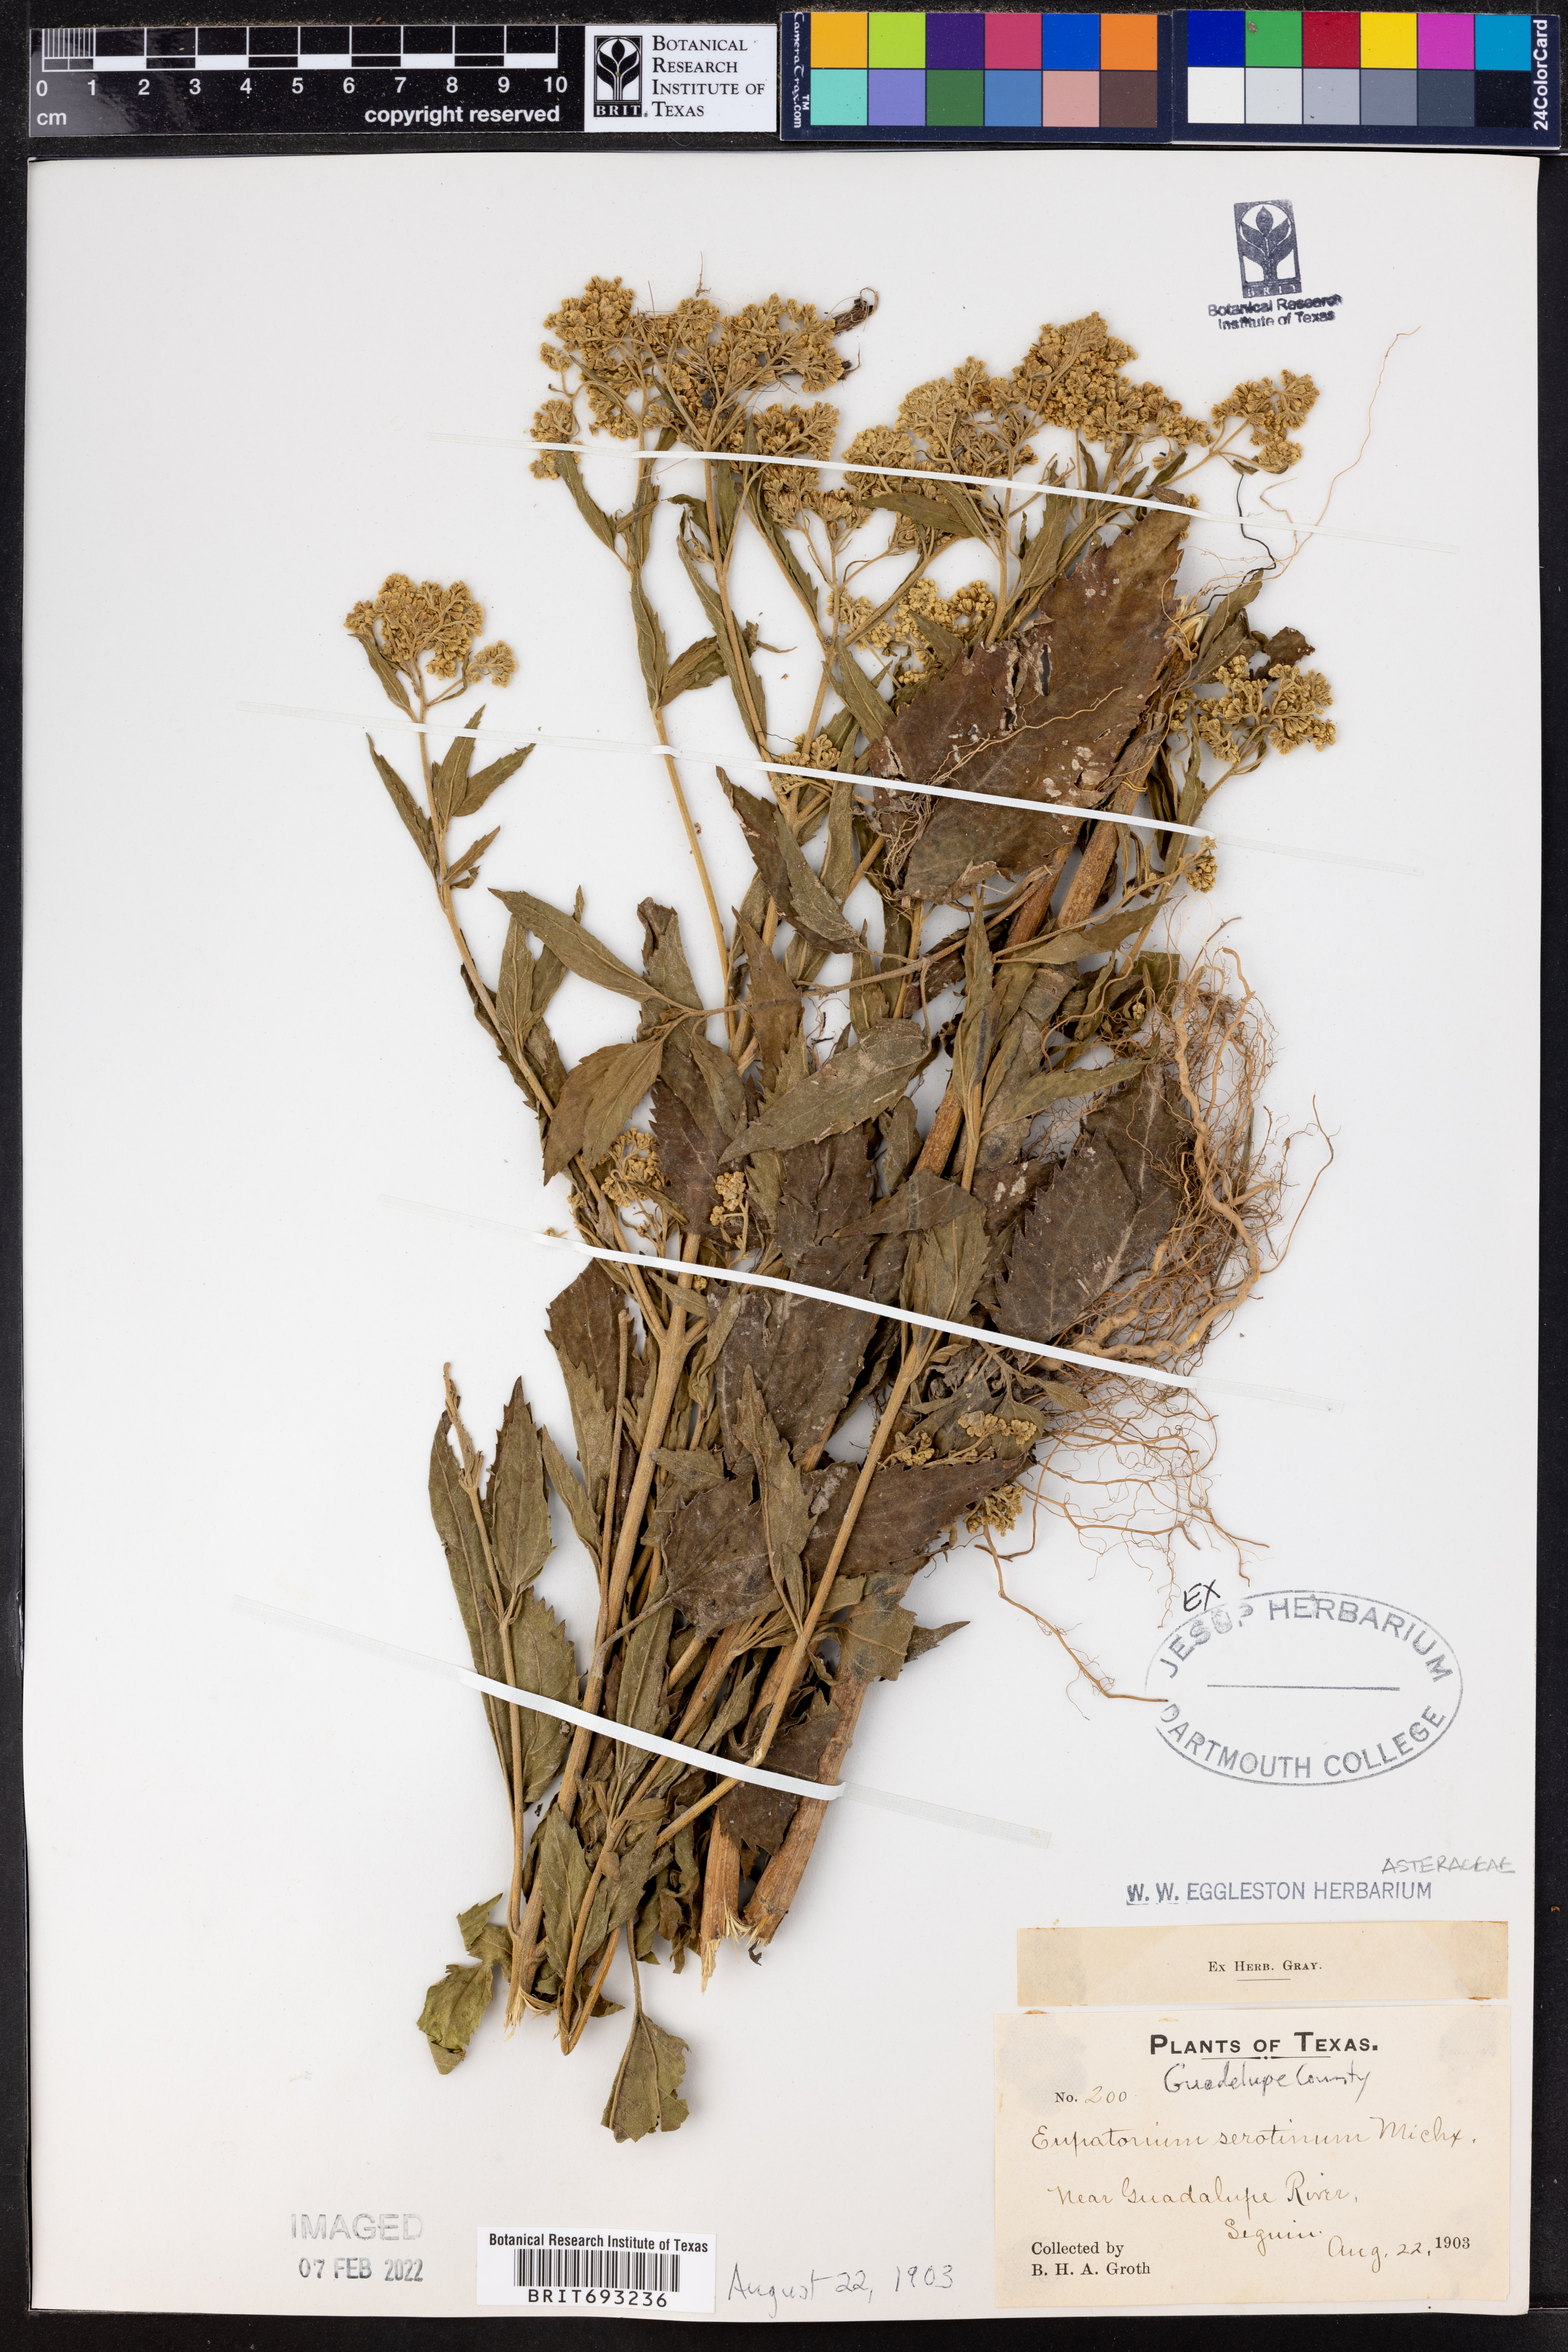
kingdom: Plantae
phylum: Tracheophyta
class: Magnoliopsida
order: Asterales
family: Asteraceae
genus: Eupatorium
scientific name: Eupatorium serotinum
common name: Late boneset
